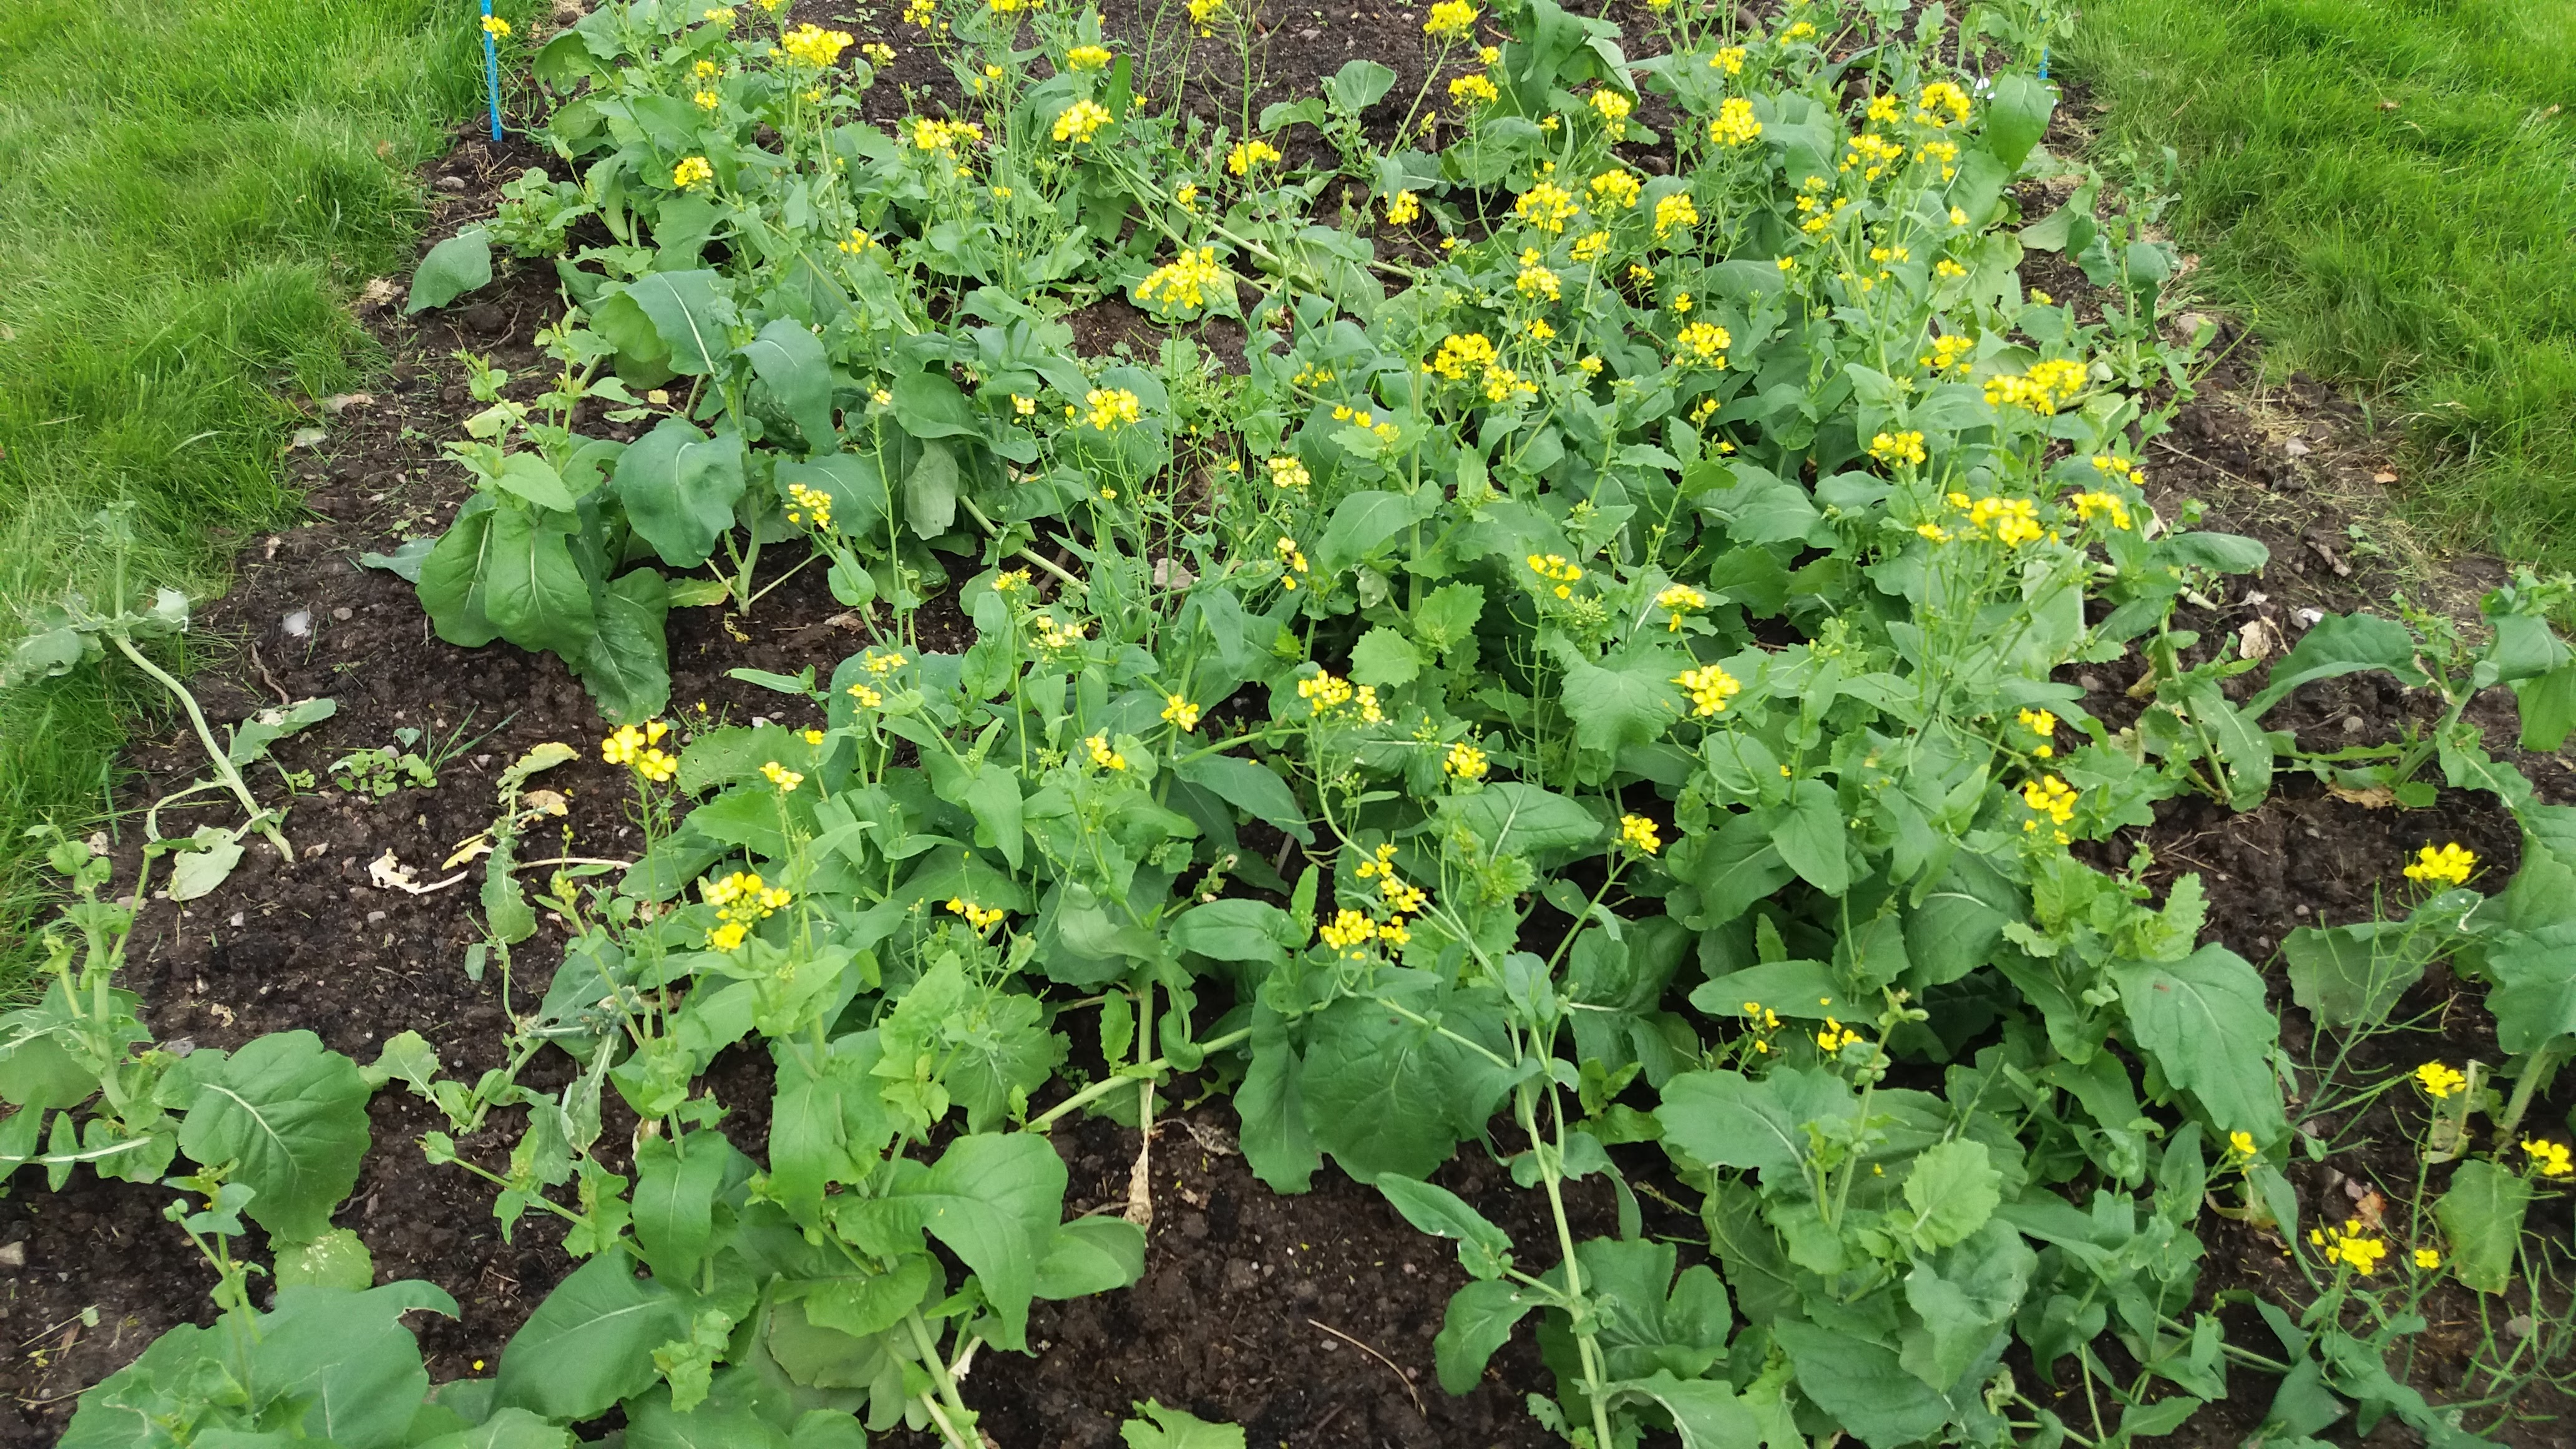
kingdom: Plantae
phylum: Tracheophyta
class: Magnoliopsida
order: Brassicales
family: Brassicaceae
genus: Brassica
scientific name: Brassica rapa
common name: Field mustard
